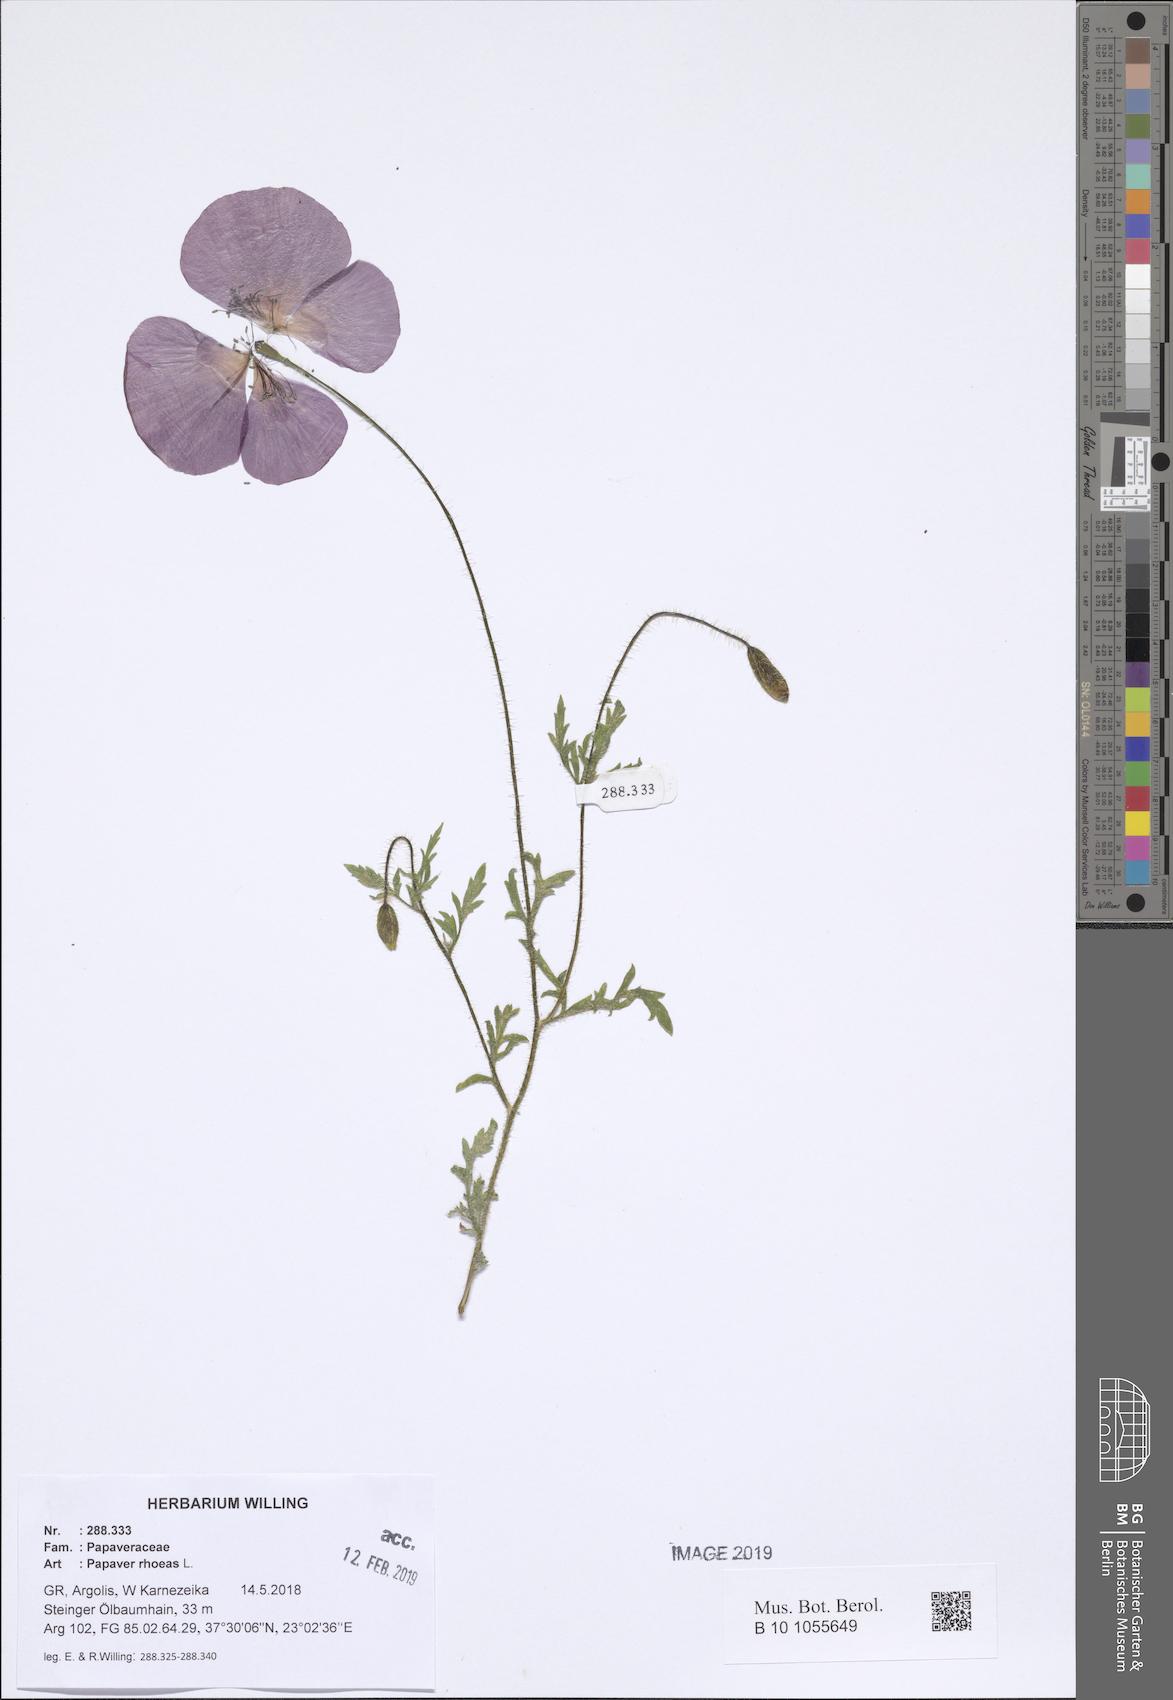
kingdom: Plantae
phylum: Tracheophyta
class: Magnoliopsida
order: Ranunculales
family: Papaveraceae
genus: Papaver
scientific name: Papaver rhoeas
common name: Corn poppy
